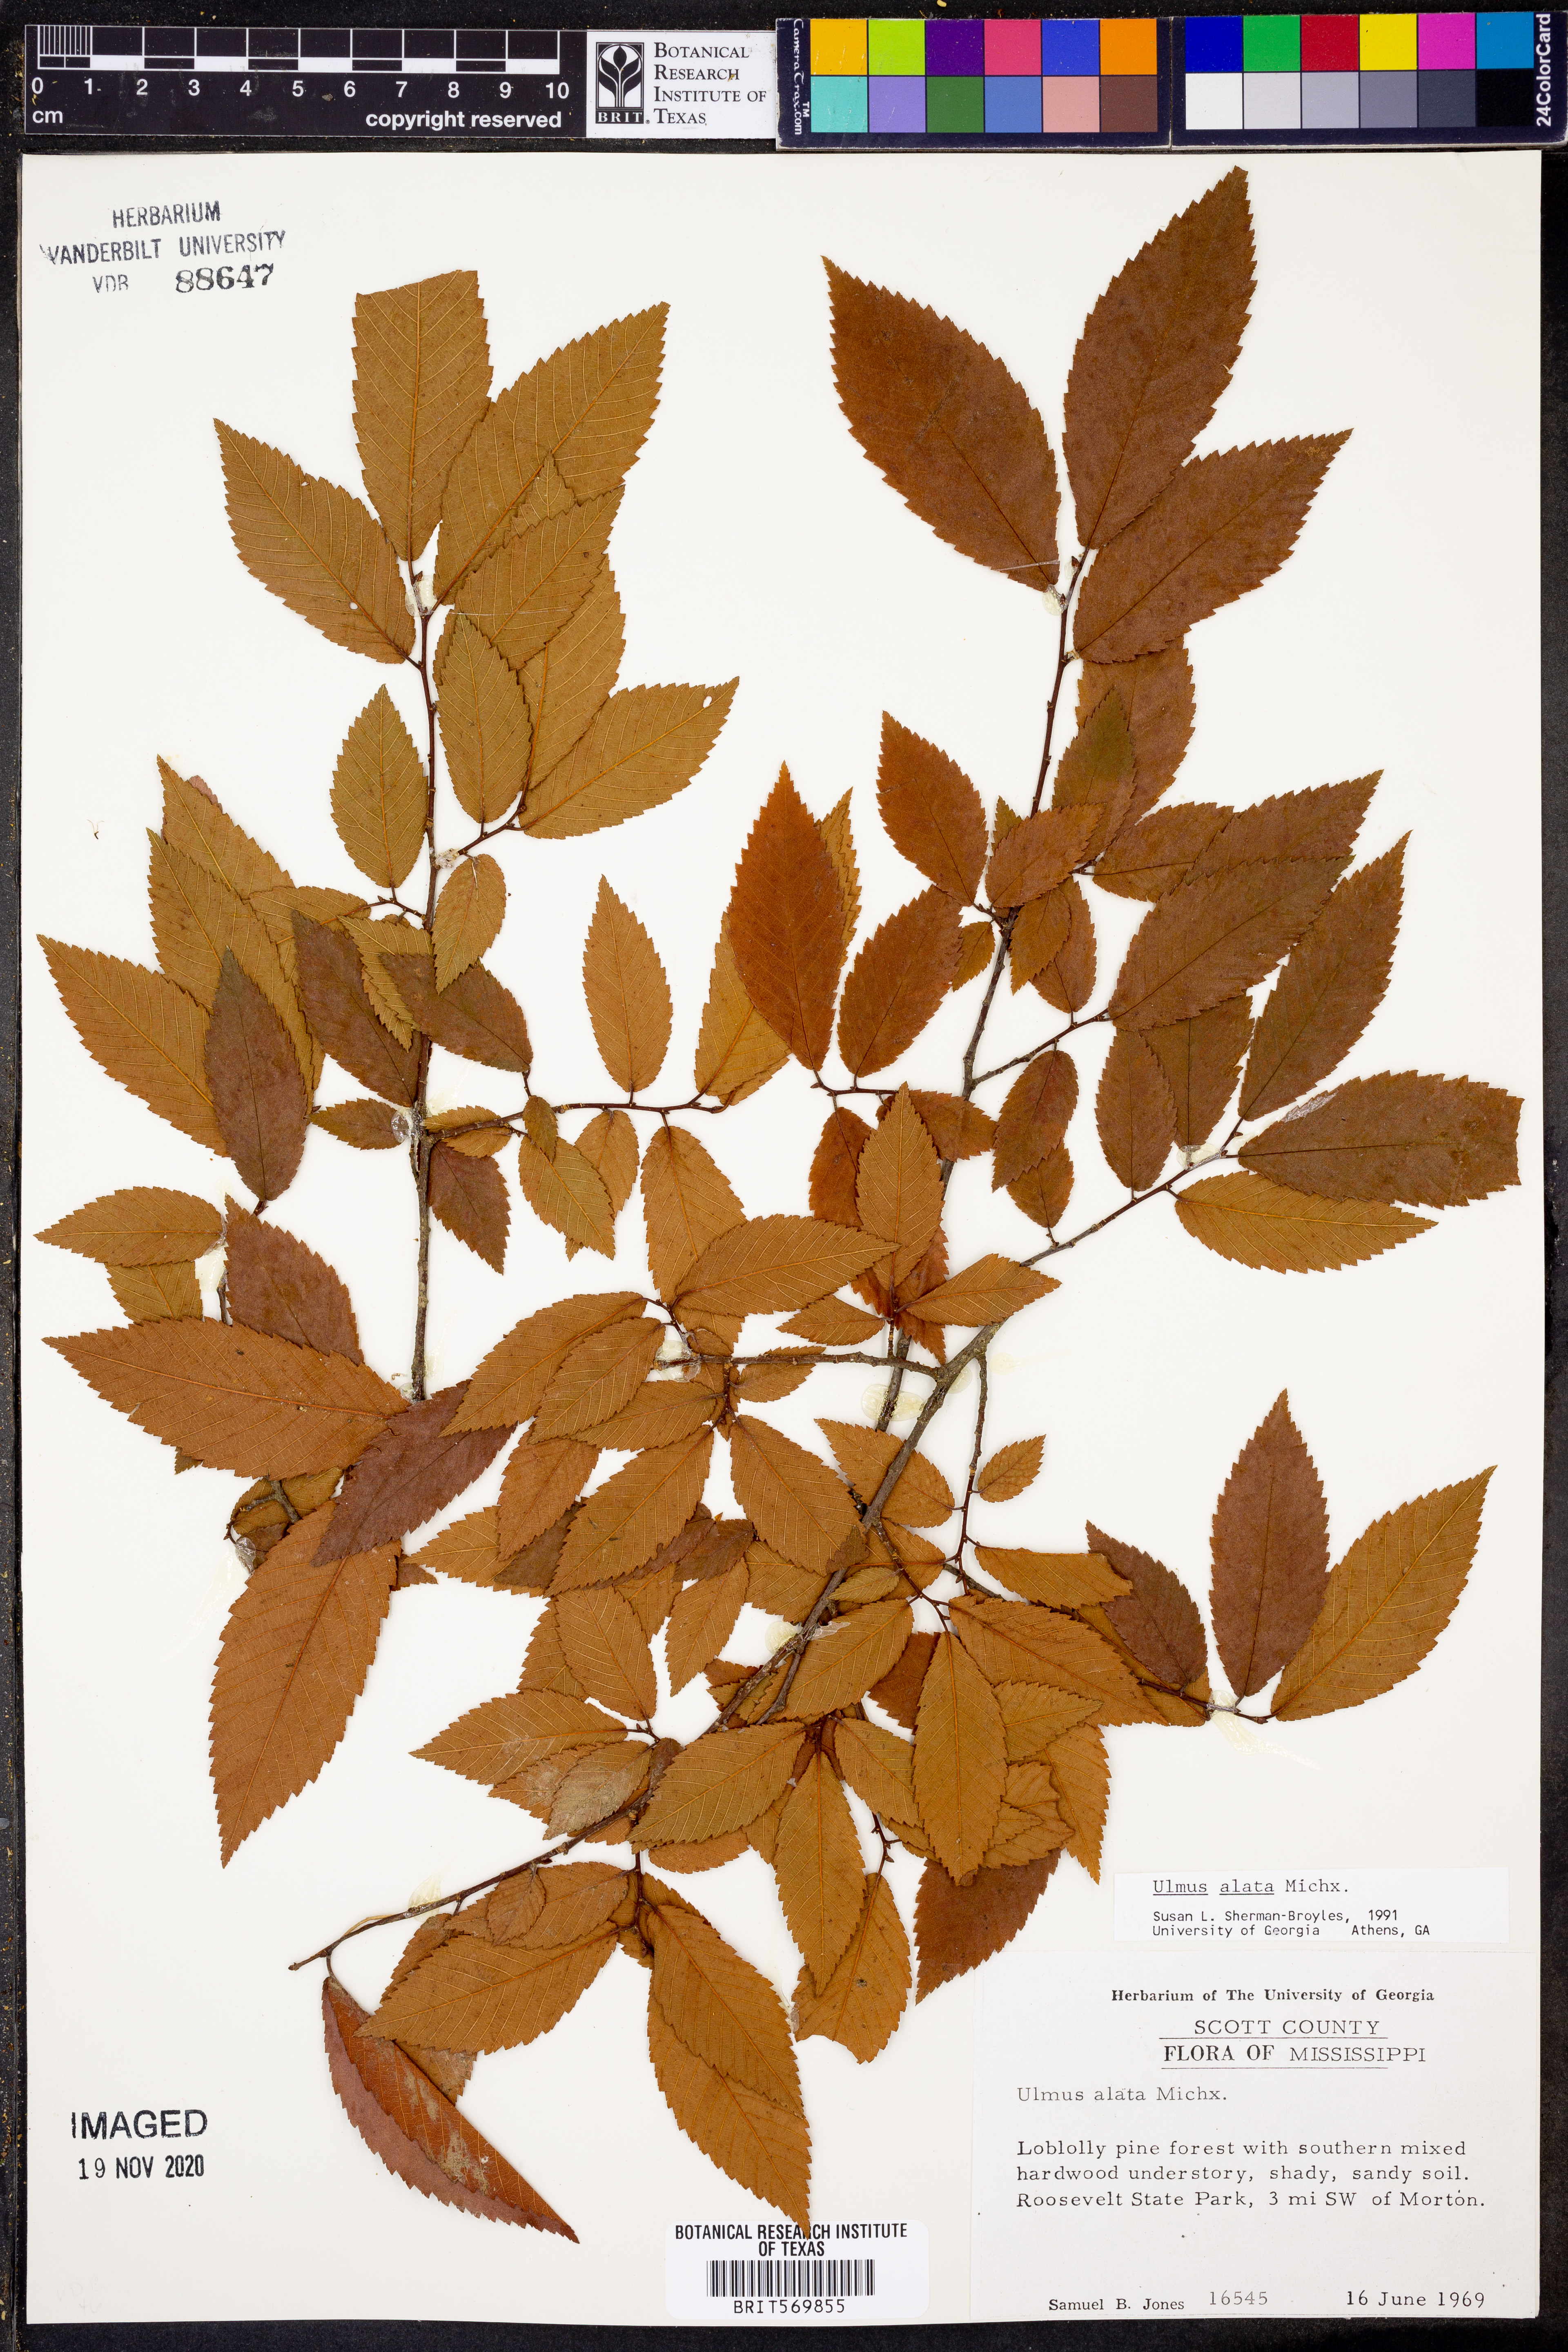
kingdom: Plantae
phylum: Tracheophyta
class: Magnoliopsida
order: Rosales
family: Ulmaceae
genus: Ulmus
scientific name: Ulmus alata
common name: Winged elm
